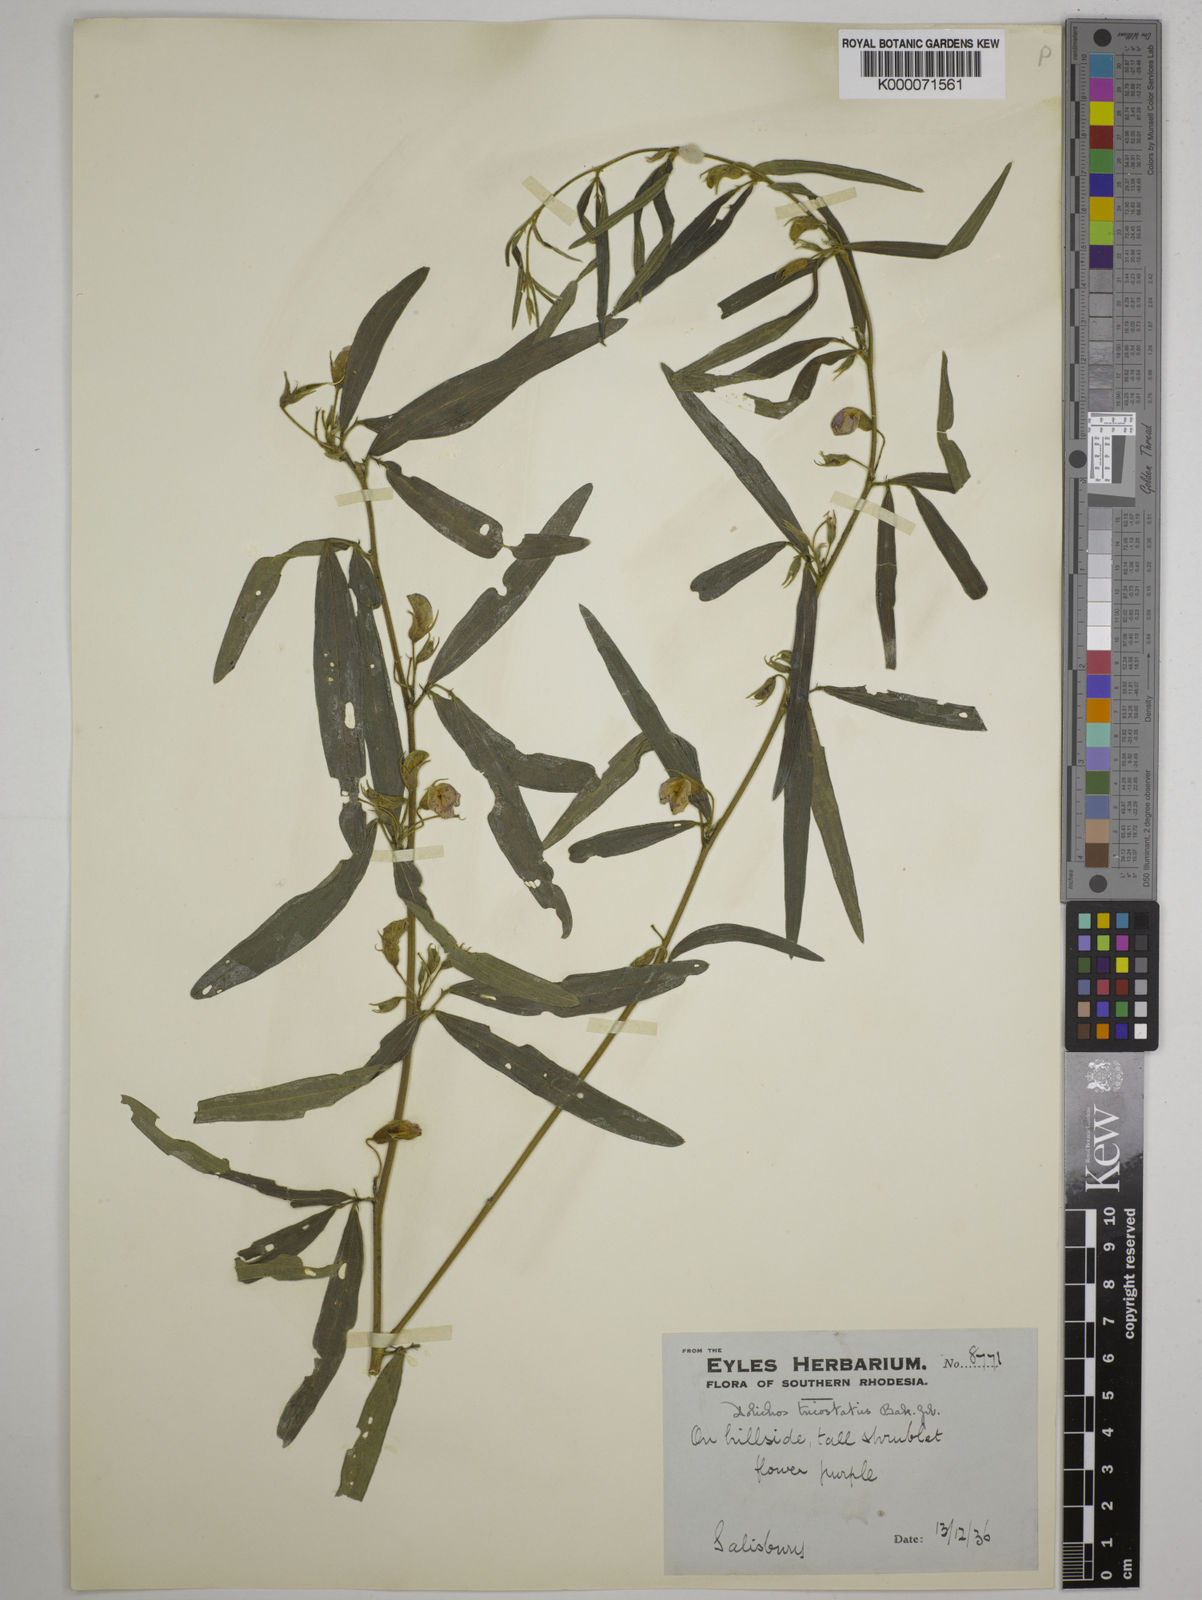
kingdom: Plantae
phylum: Tracheophyta
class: Magnoliopsida
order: Fabales
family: Fabaceae
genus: Dolichos
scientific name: Dolichos trinervatus
